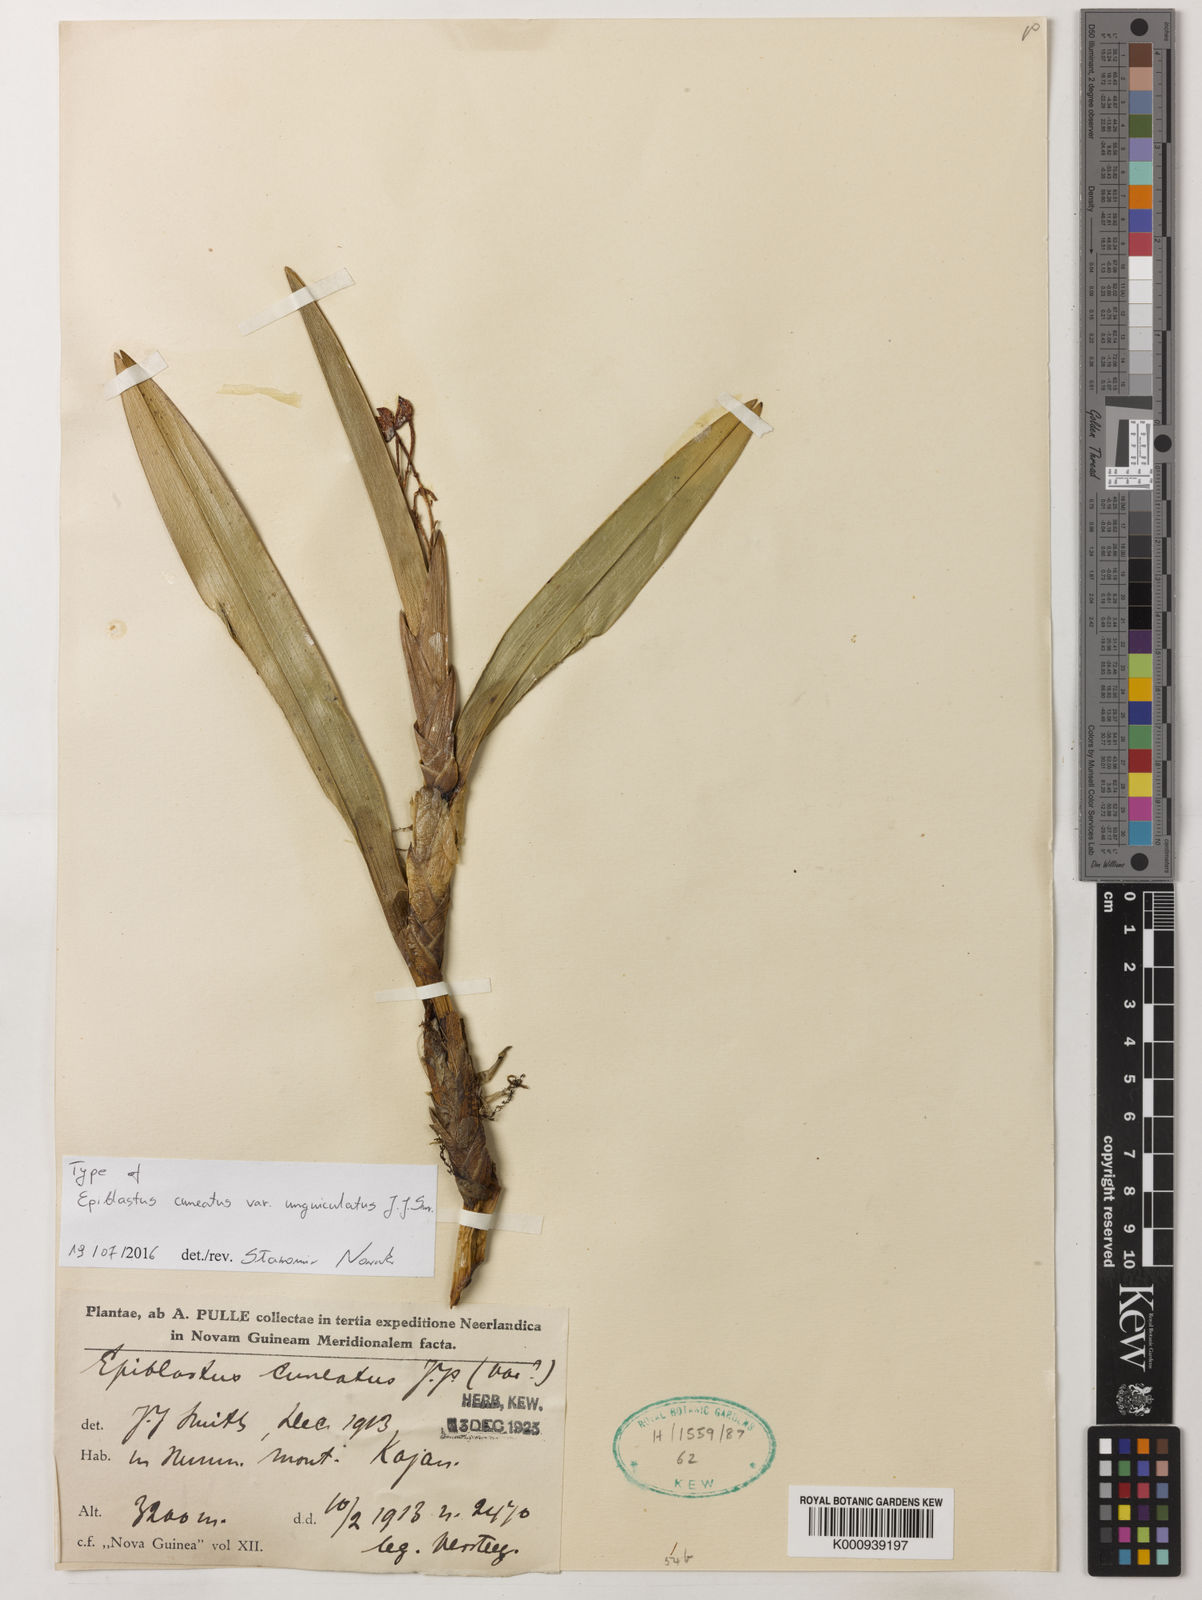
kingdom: Plantae
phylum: Tracheophyta
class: Liliopsida
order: Asparagales
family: Orchidaceae
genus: Epiblastus
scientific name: Epiblastus unguiculatus
